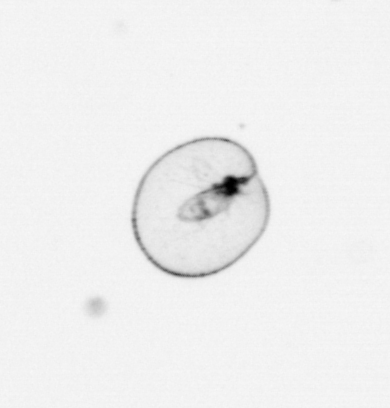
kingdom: Chromista
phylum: Myzozoa
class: Dinophyceae
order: Noctilucales
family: Noctilucaceae
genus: Noctiluca
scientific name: Noctiluca scintillans
